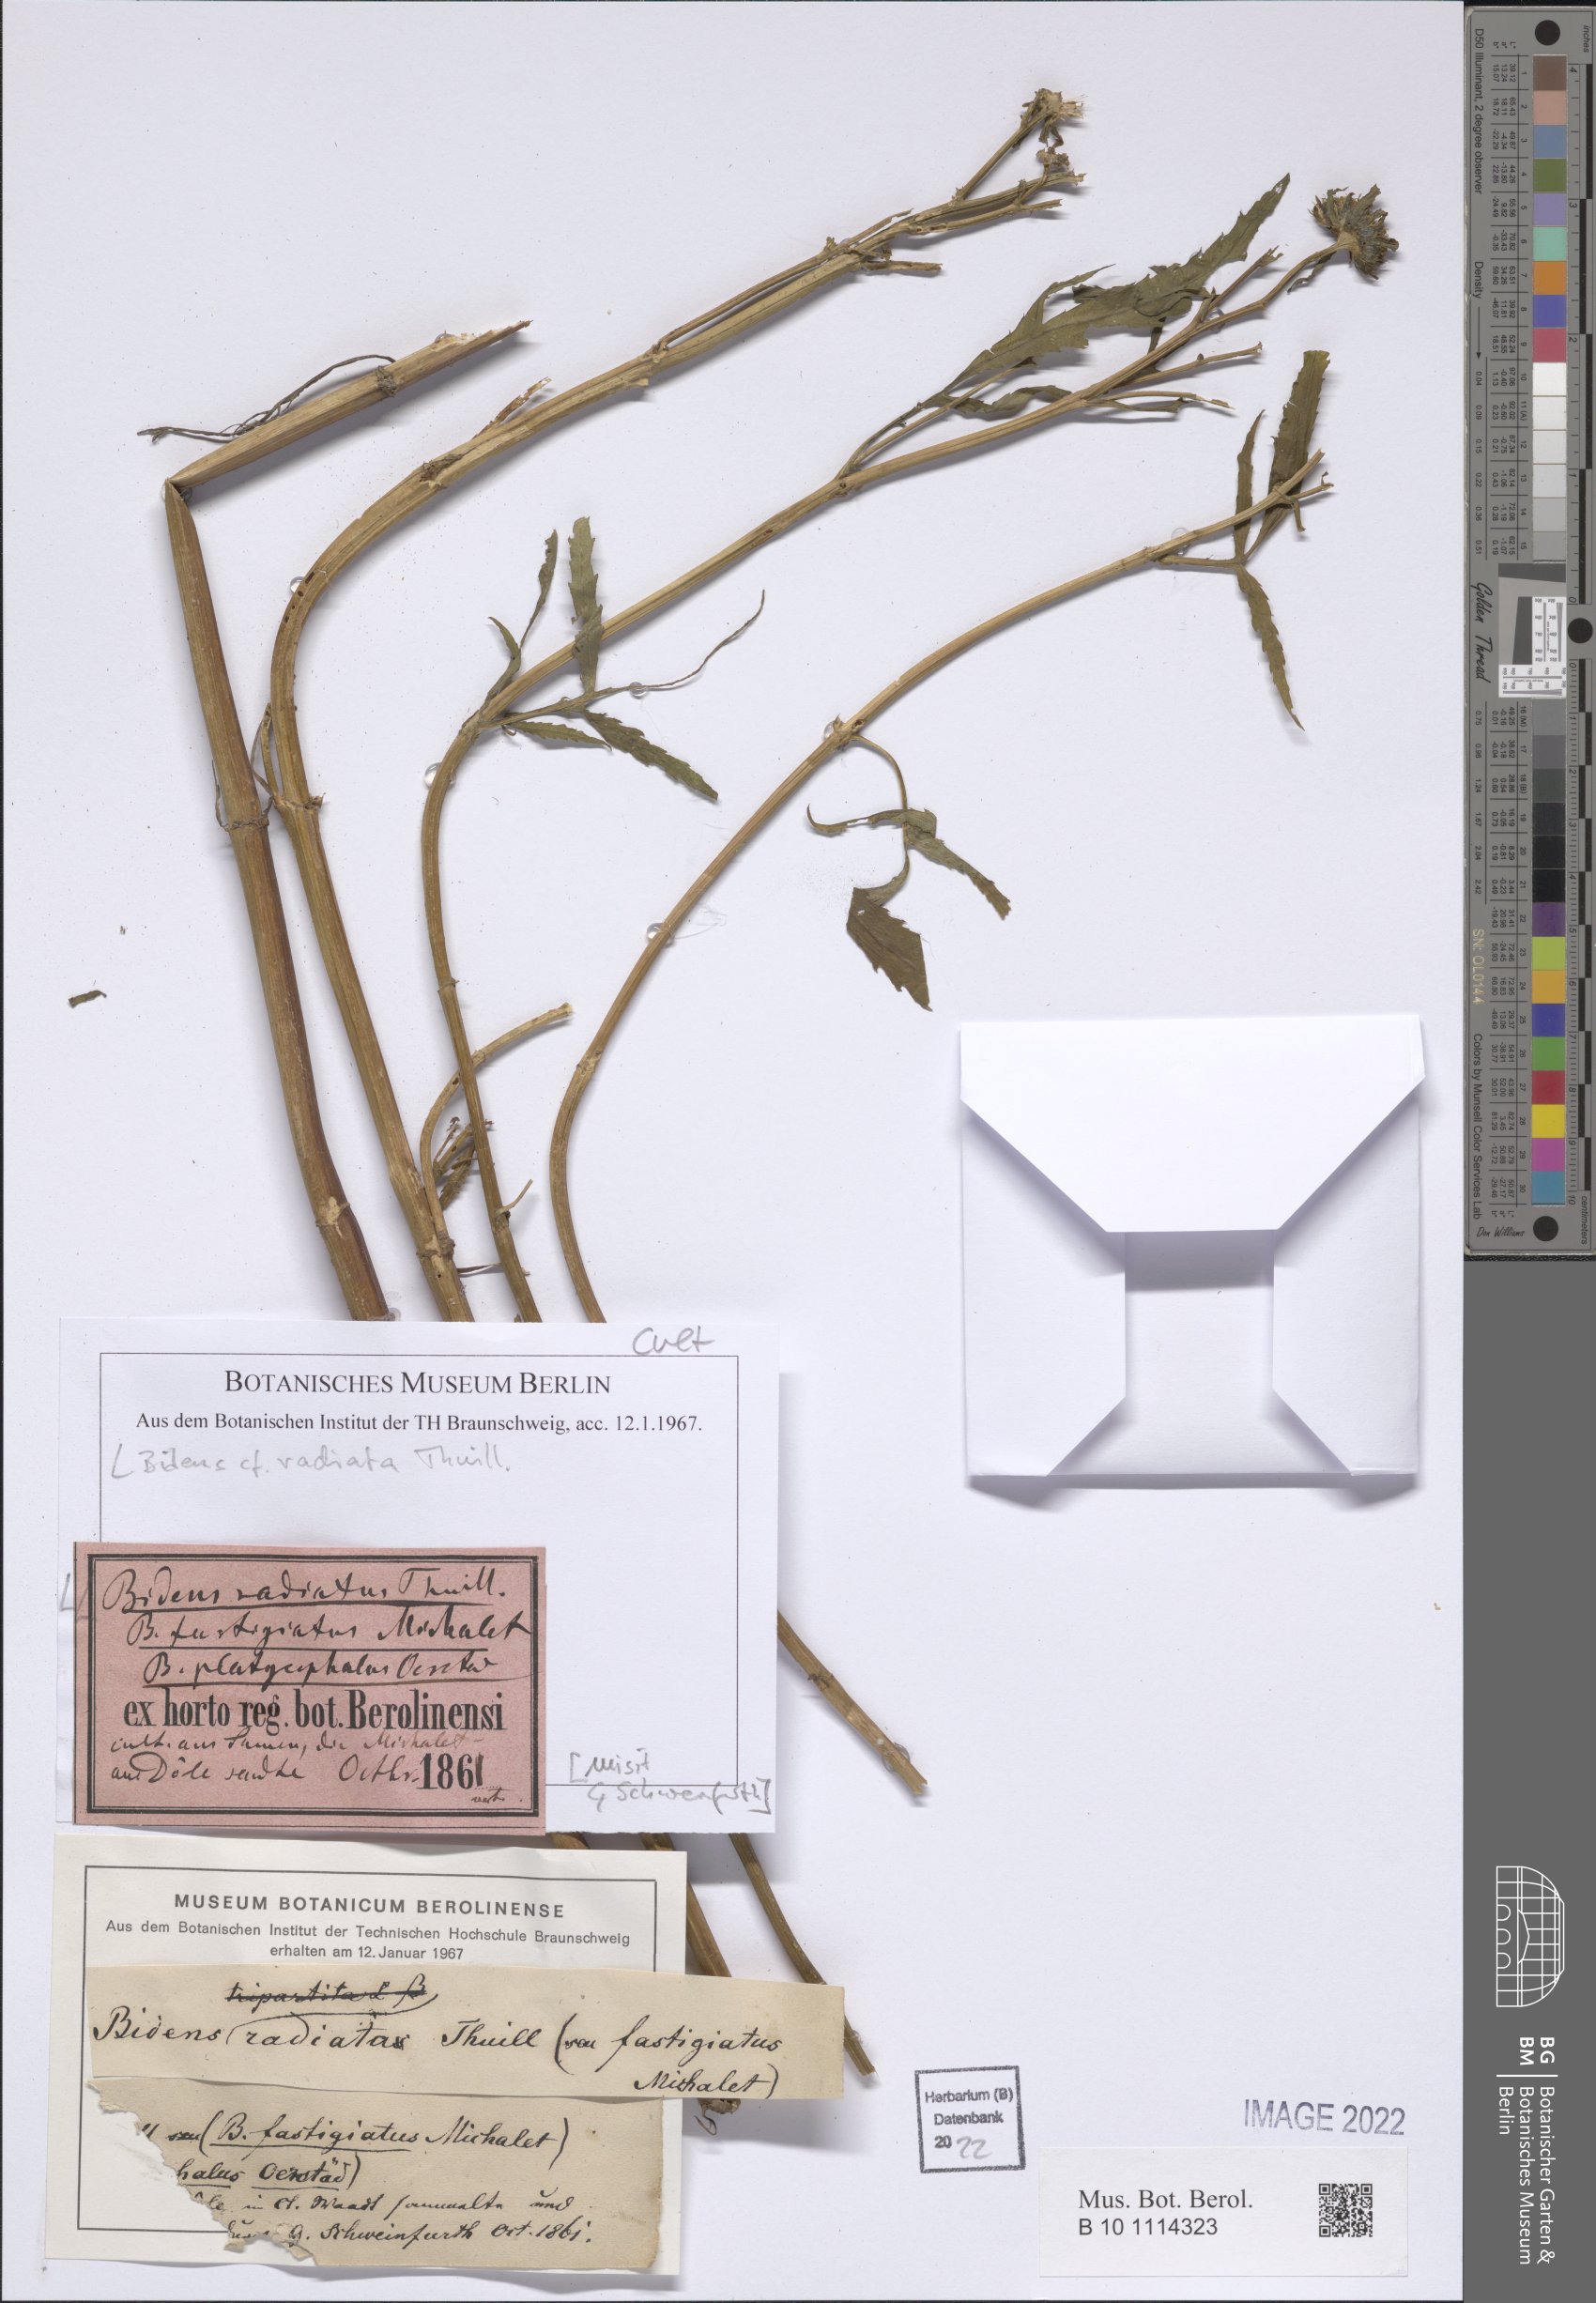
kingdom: Plantae
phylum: Tracheophyta
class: Magnoliopsida
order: Asterales
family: Asteraceae
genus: Bidens
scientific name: Bidens radiata
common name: Radiating bur-marigold
